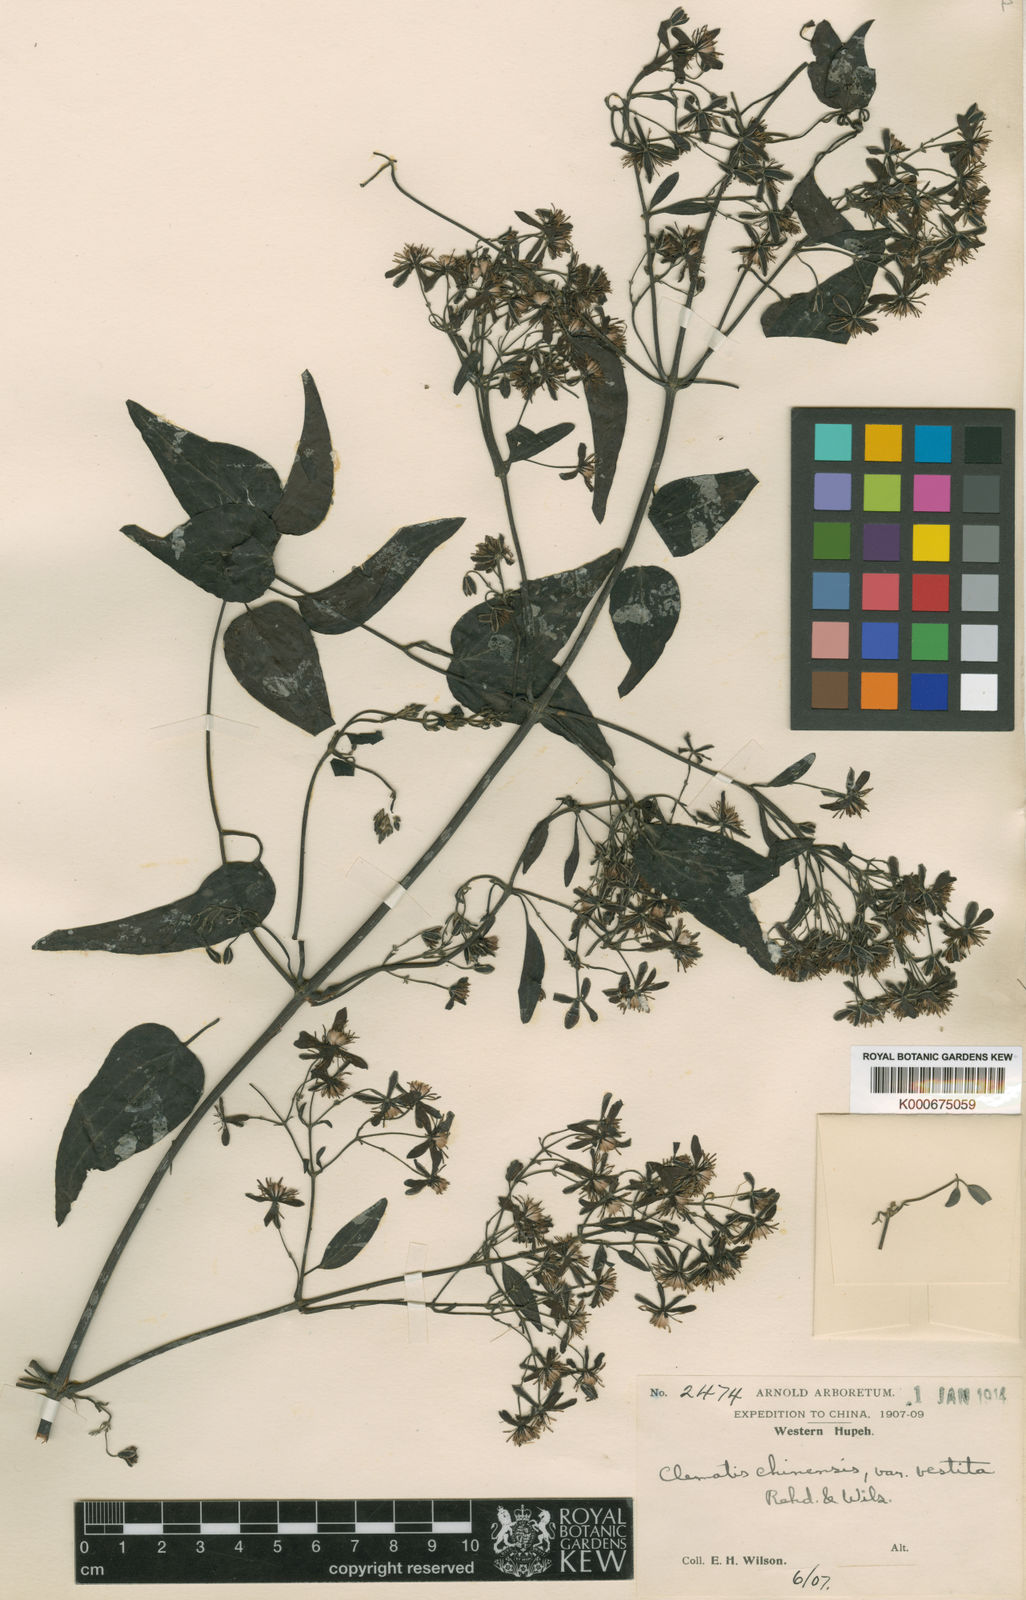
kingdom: Plantae
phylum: Tracheophyta
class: Magnoliopsida
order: Ranunculales
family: Ranunculaceae
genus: Clematis
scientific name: Clematis chinensis
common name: Chinese clematis
